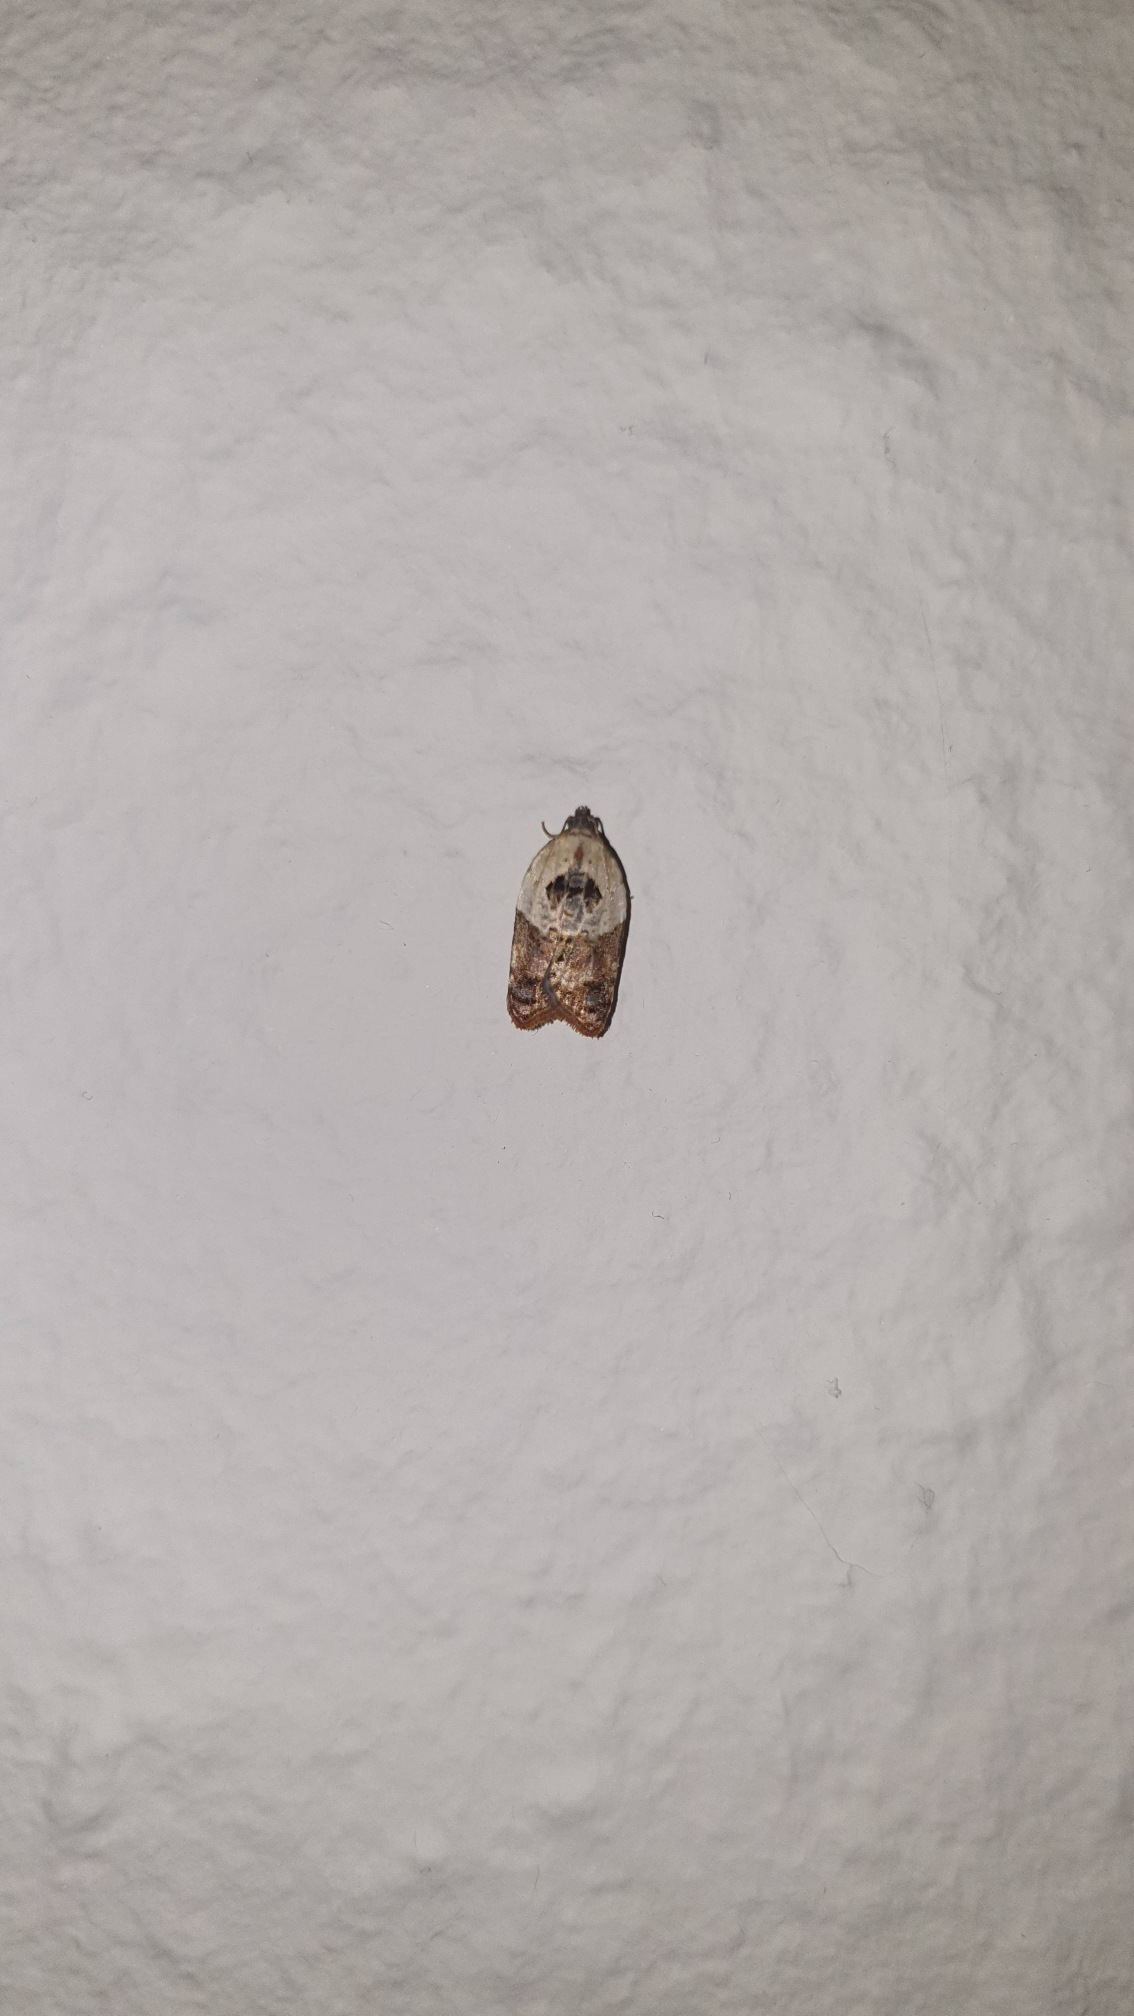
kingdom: Animalia
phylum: Arthropoda
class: Insecta
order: Lepidoptera
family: Tortricidae
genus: Acleris
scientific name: Acleris variegana
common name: Hvidbroget rosenvikler
